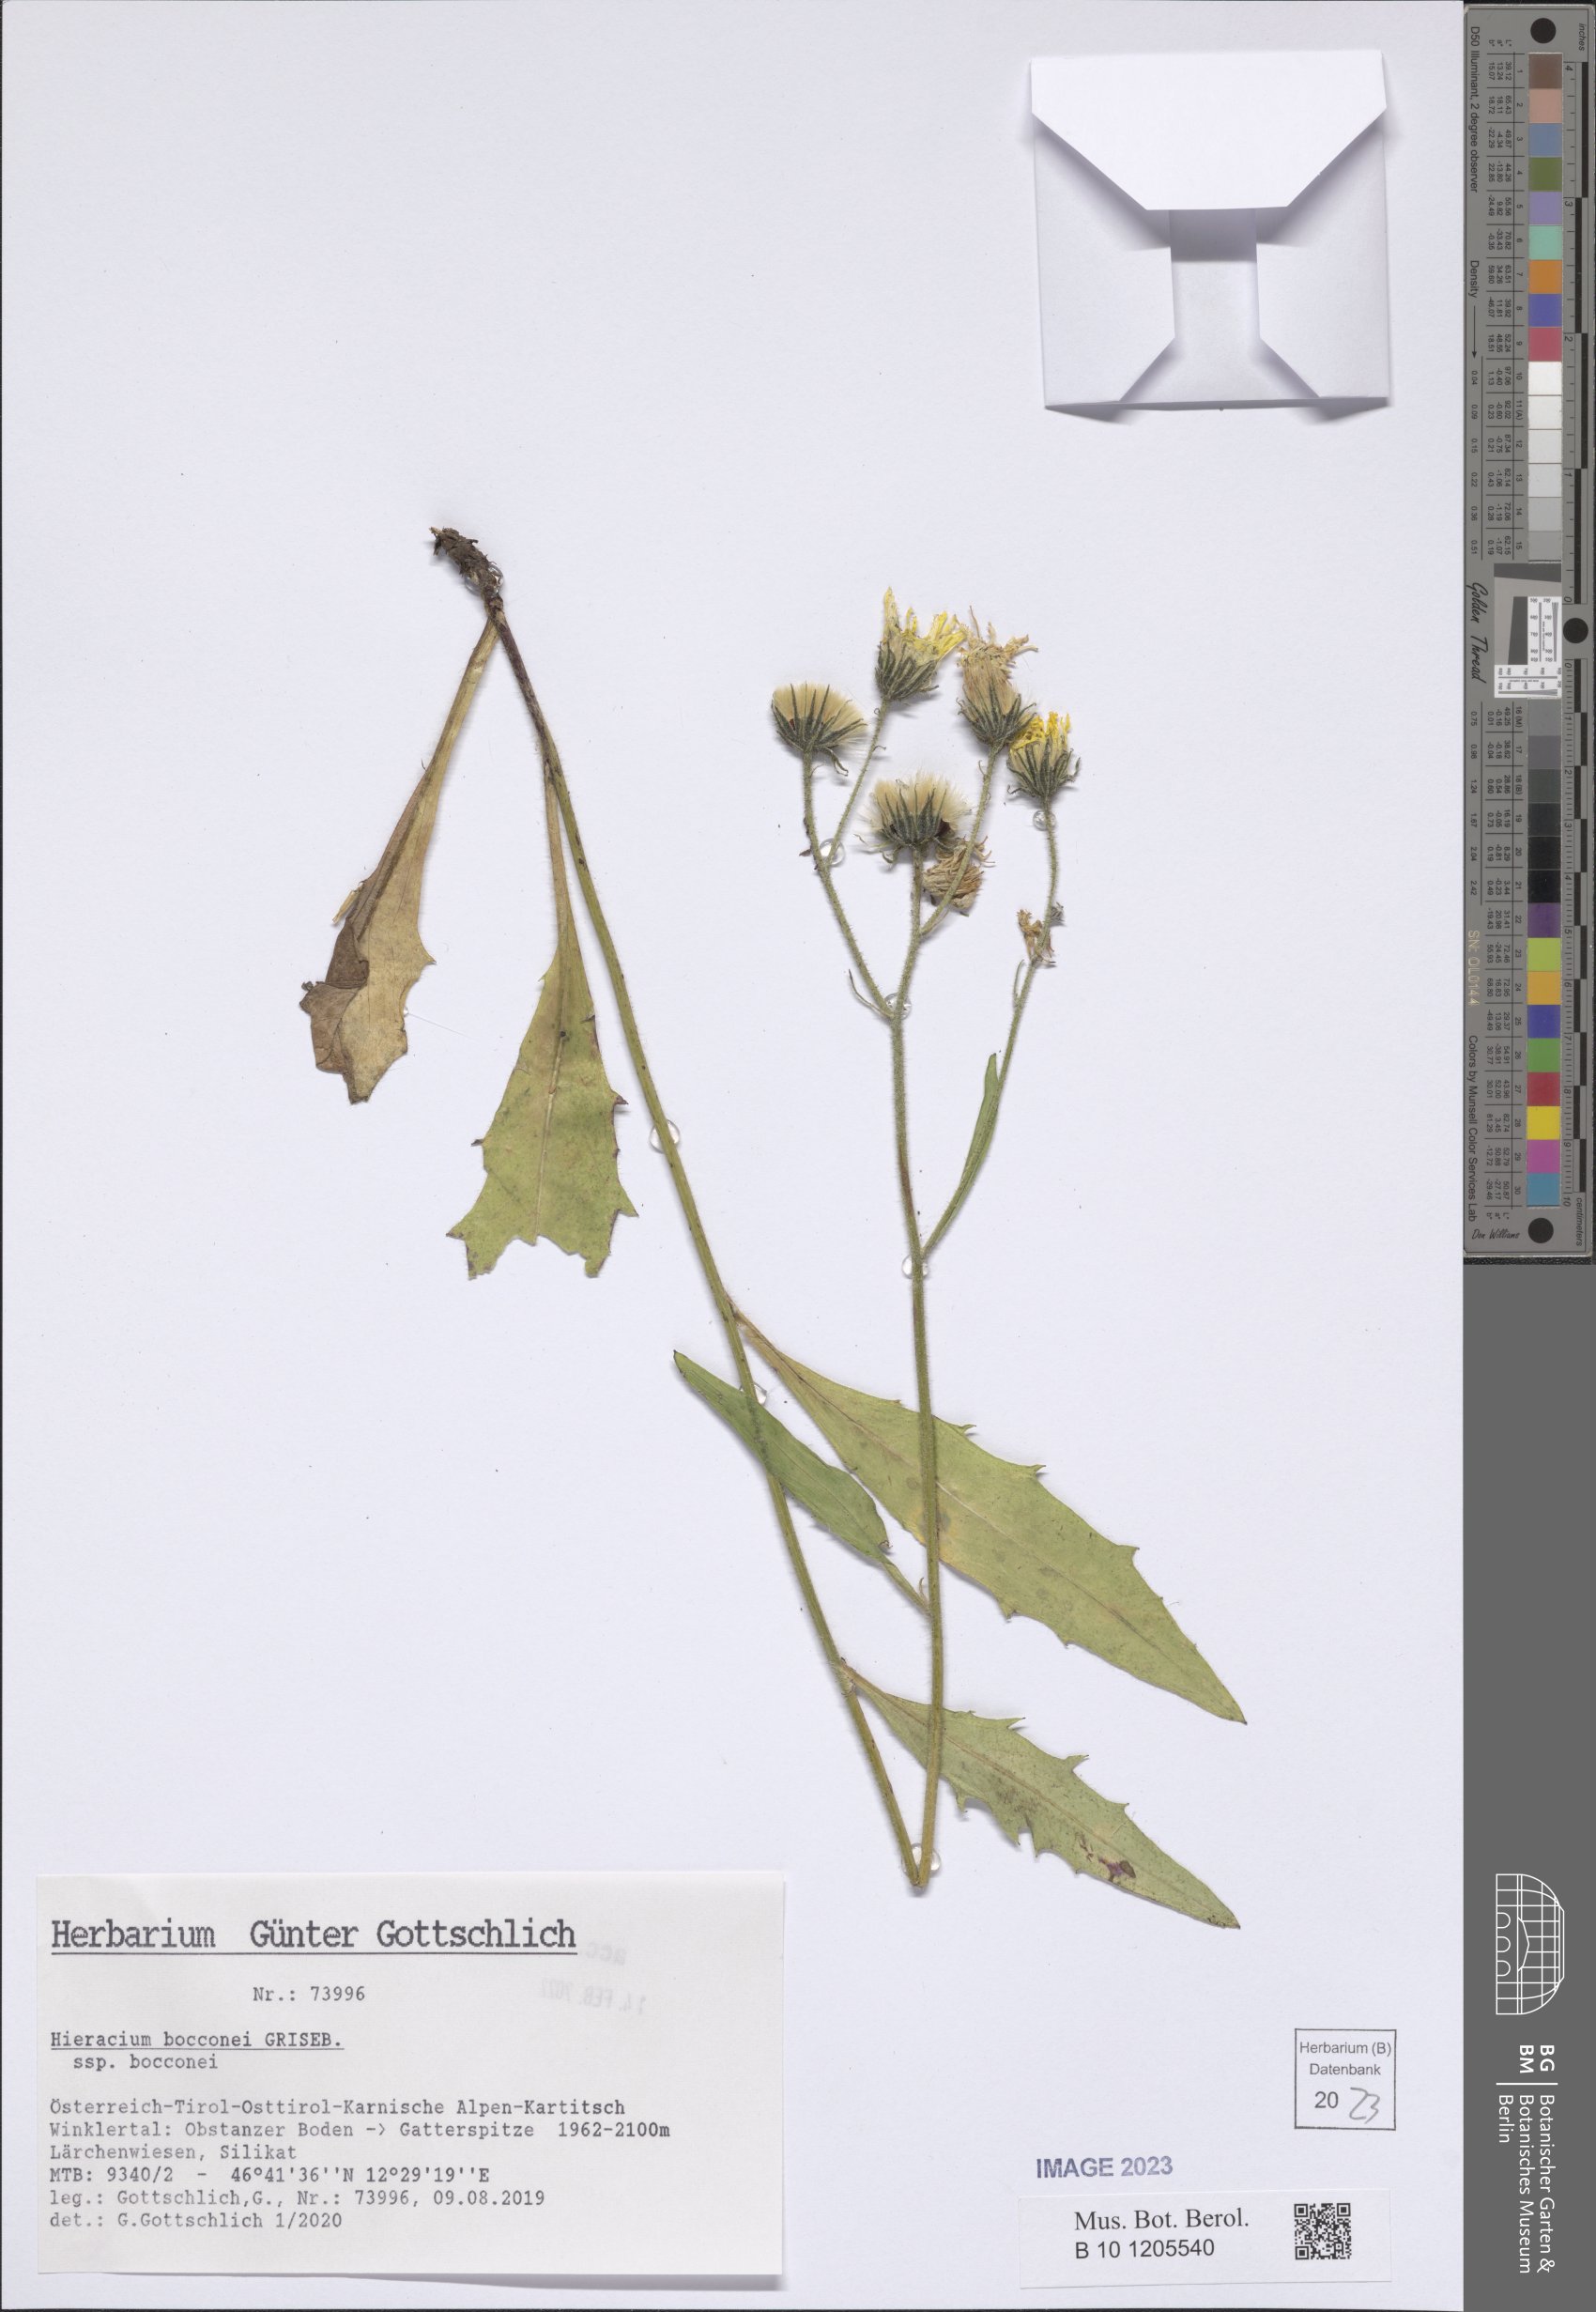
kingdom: Plantae
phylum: Tracheophyta
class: Magnoliopsida
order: Asterales
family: Asteraceae
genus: Hieracium
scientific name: Hieracium bocconei
